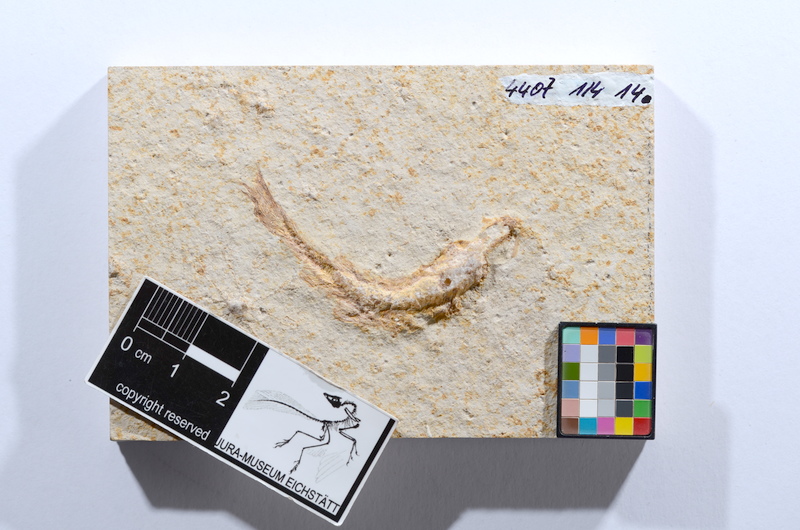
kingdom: Animalia
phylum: Chordata
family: Ascalaboidae
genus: Tharsis
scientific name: Tharsis dubius
